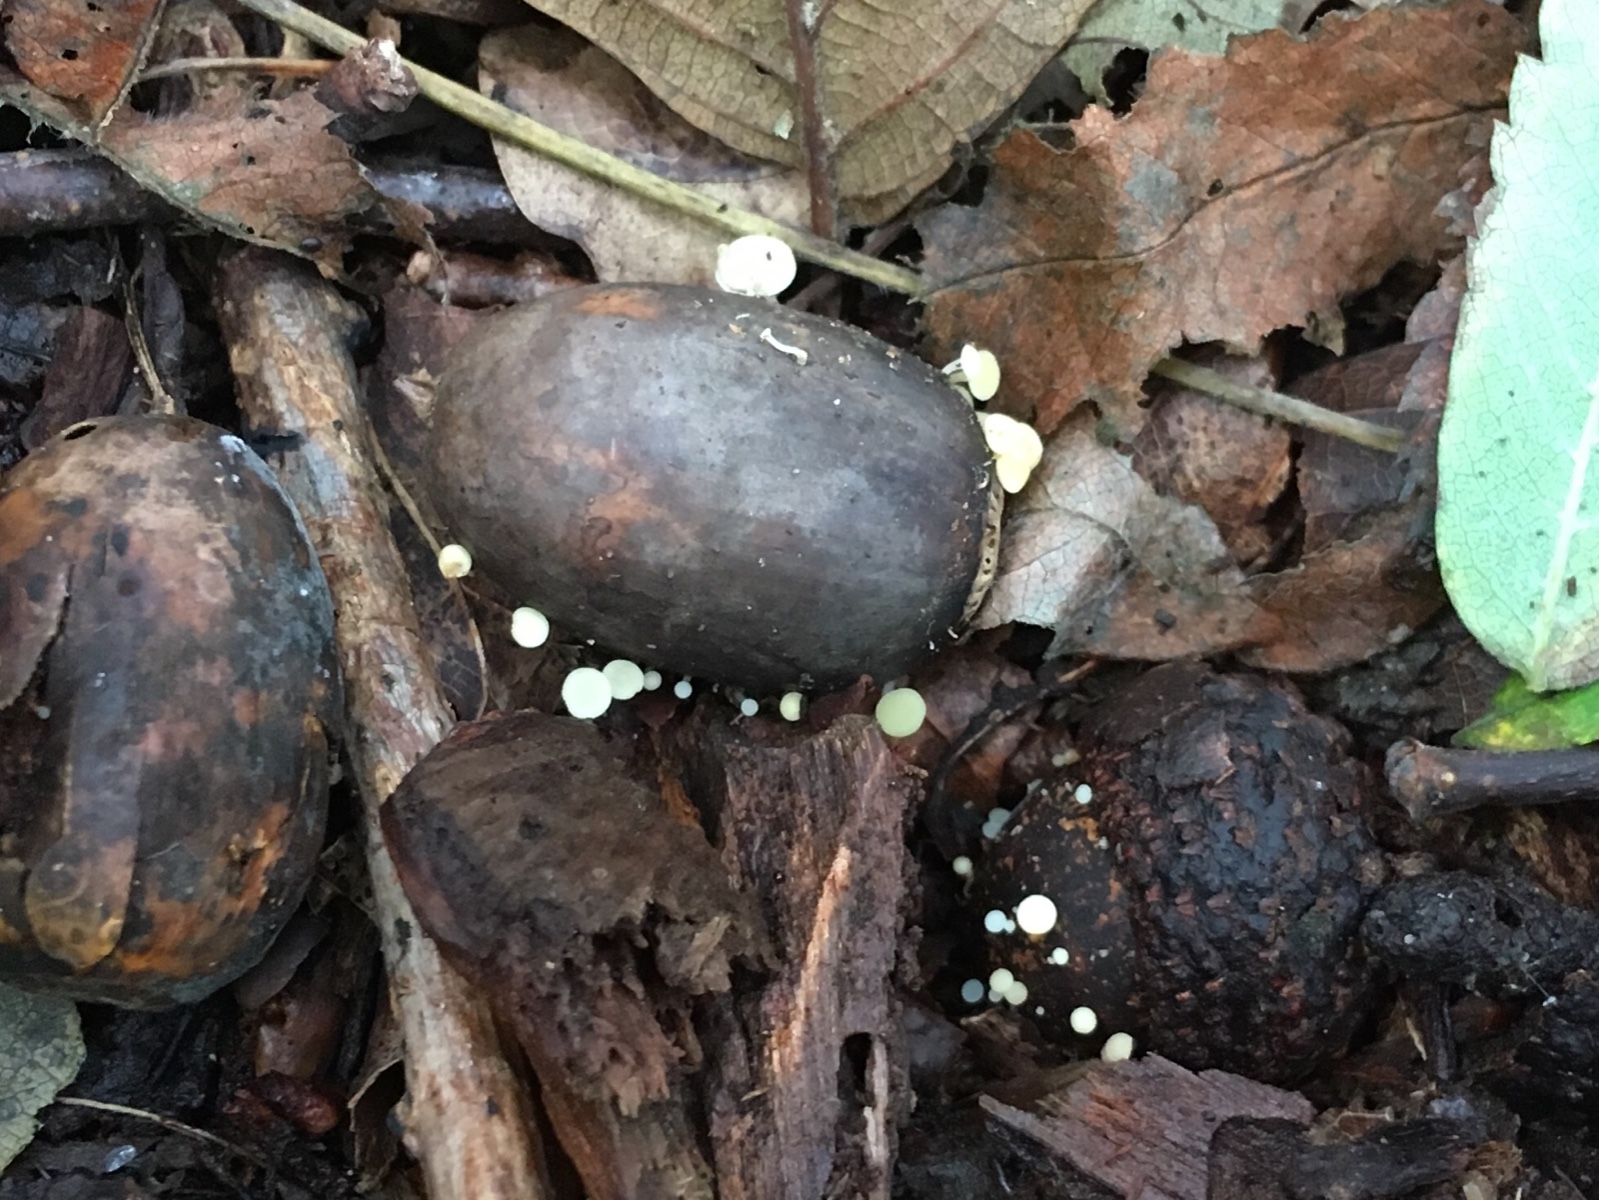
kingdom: Fungi
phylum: Ascomycota
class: Leotiomycetes
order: Helotiales
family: Helotiaceae
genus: Hymenoscyphus
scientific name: Hymenoscyphus fructigenus
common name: frugt-stilkskive
